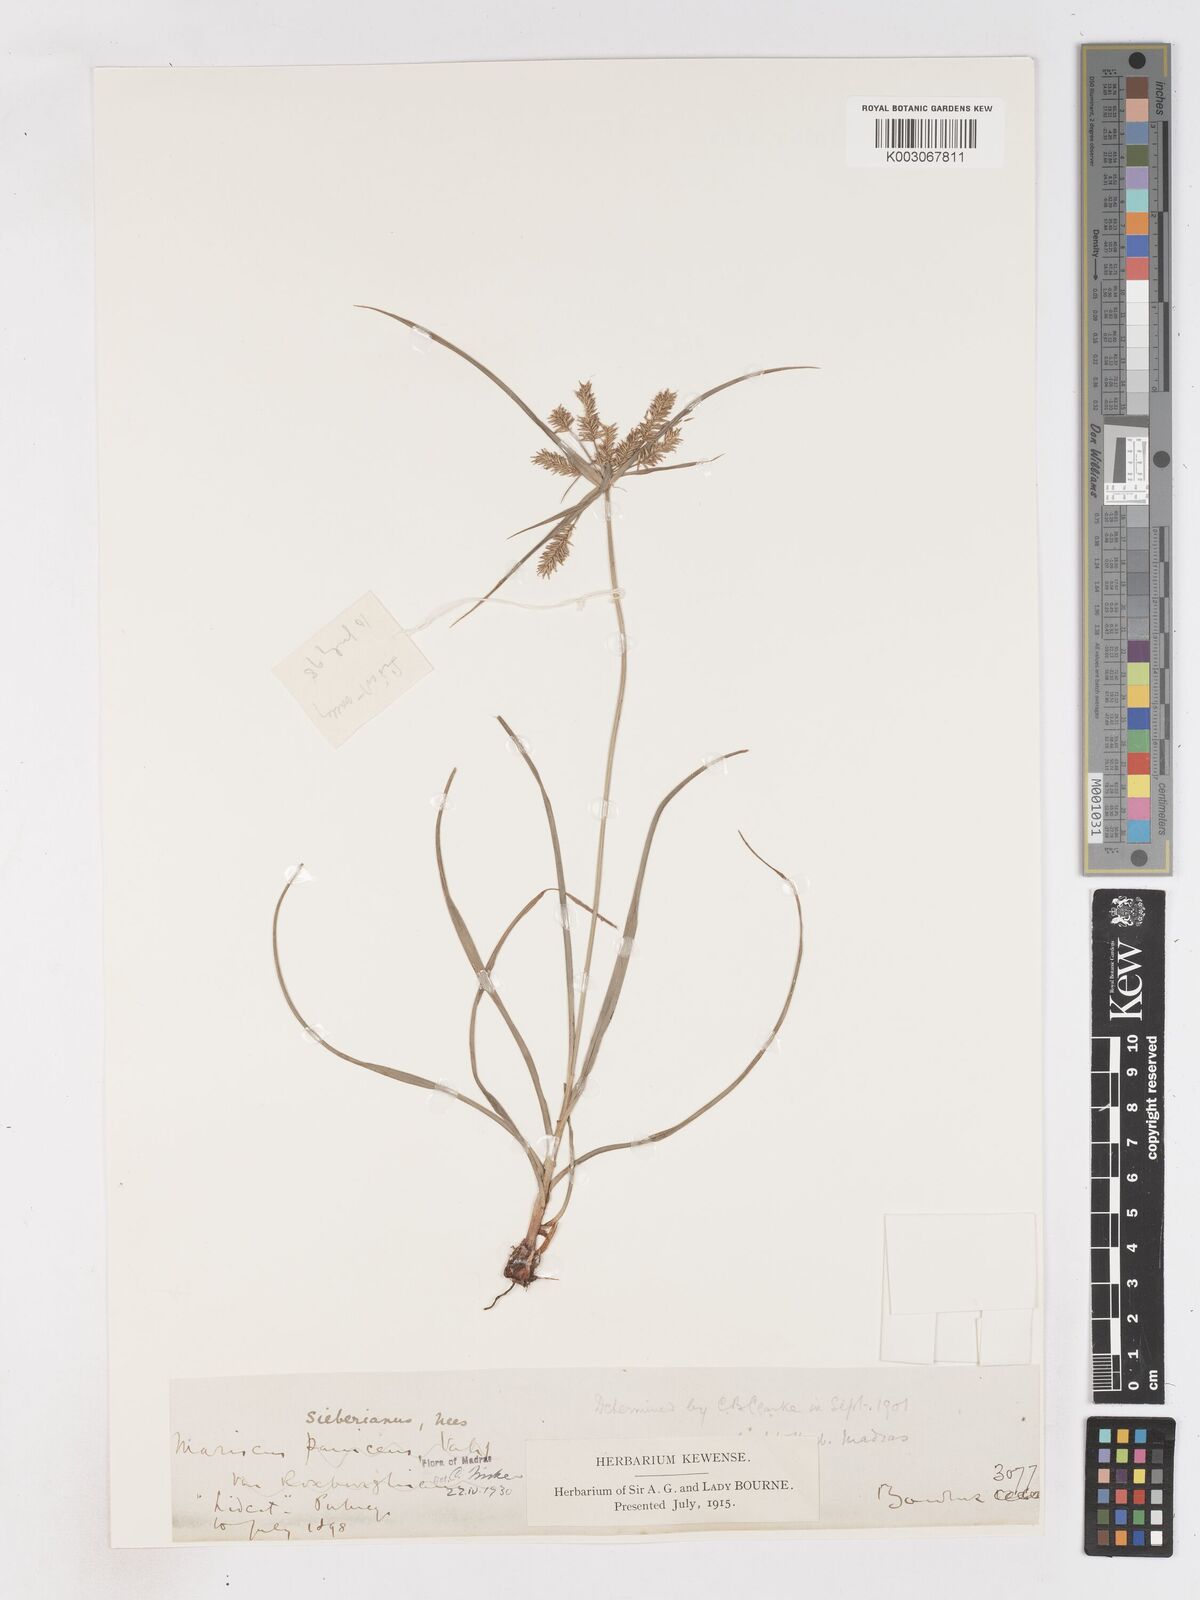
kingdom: Plantae
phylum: Tracheophyta
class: Liliopsida
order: Poales
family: Cyperaceae
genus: Cyperus
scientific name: Cyperus cyperoides
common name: Pacific island flat sedge
